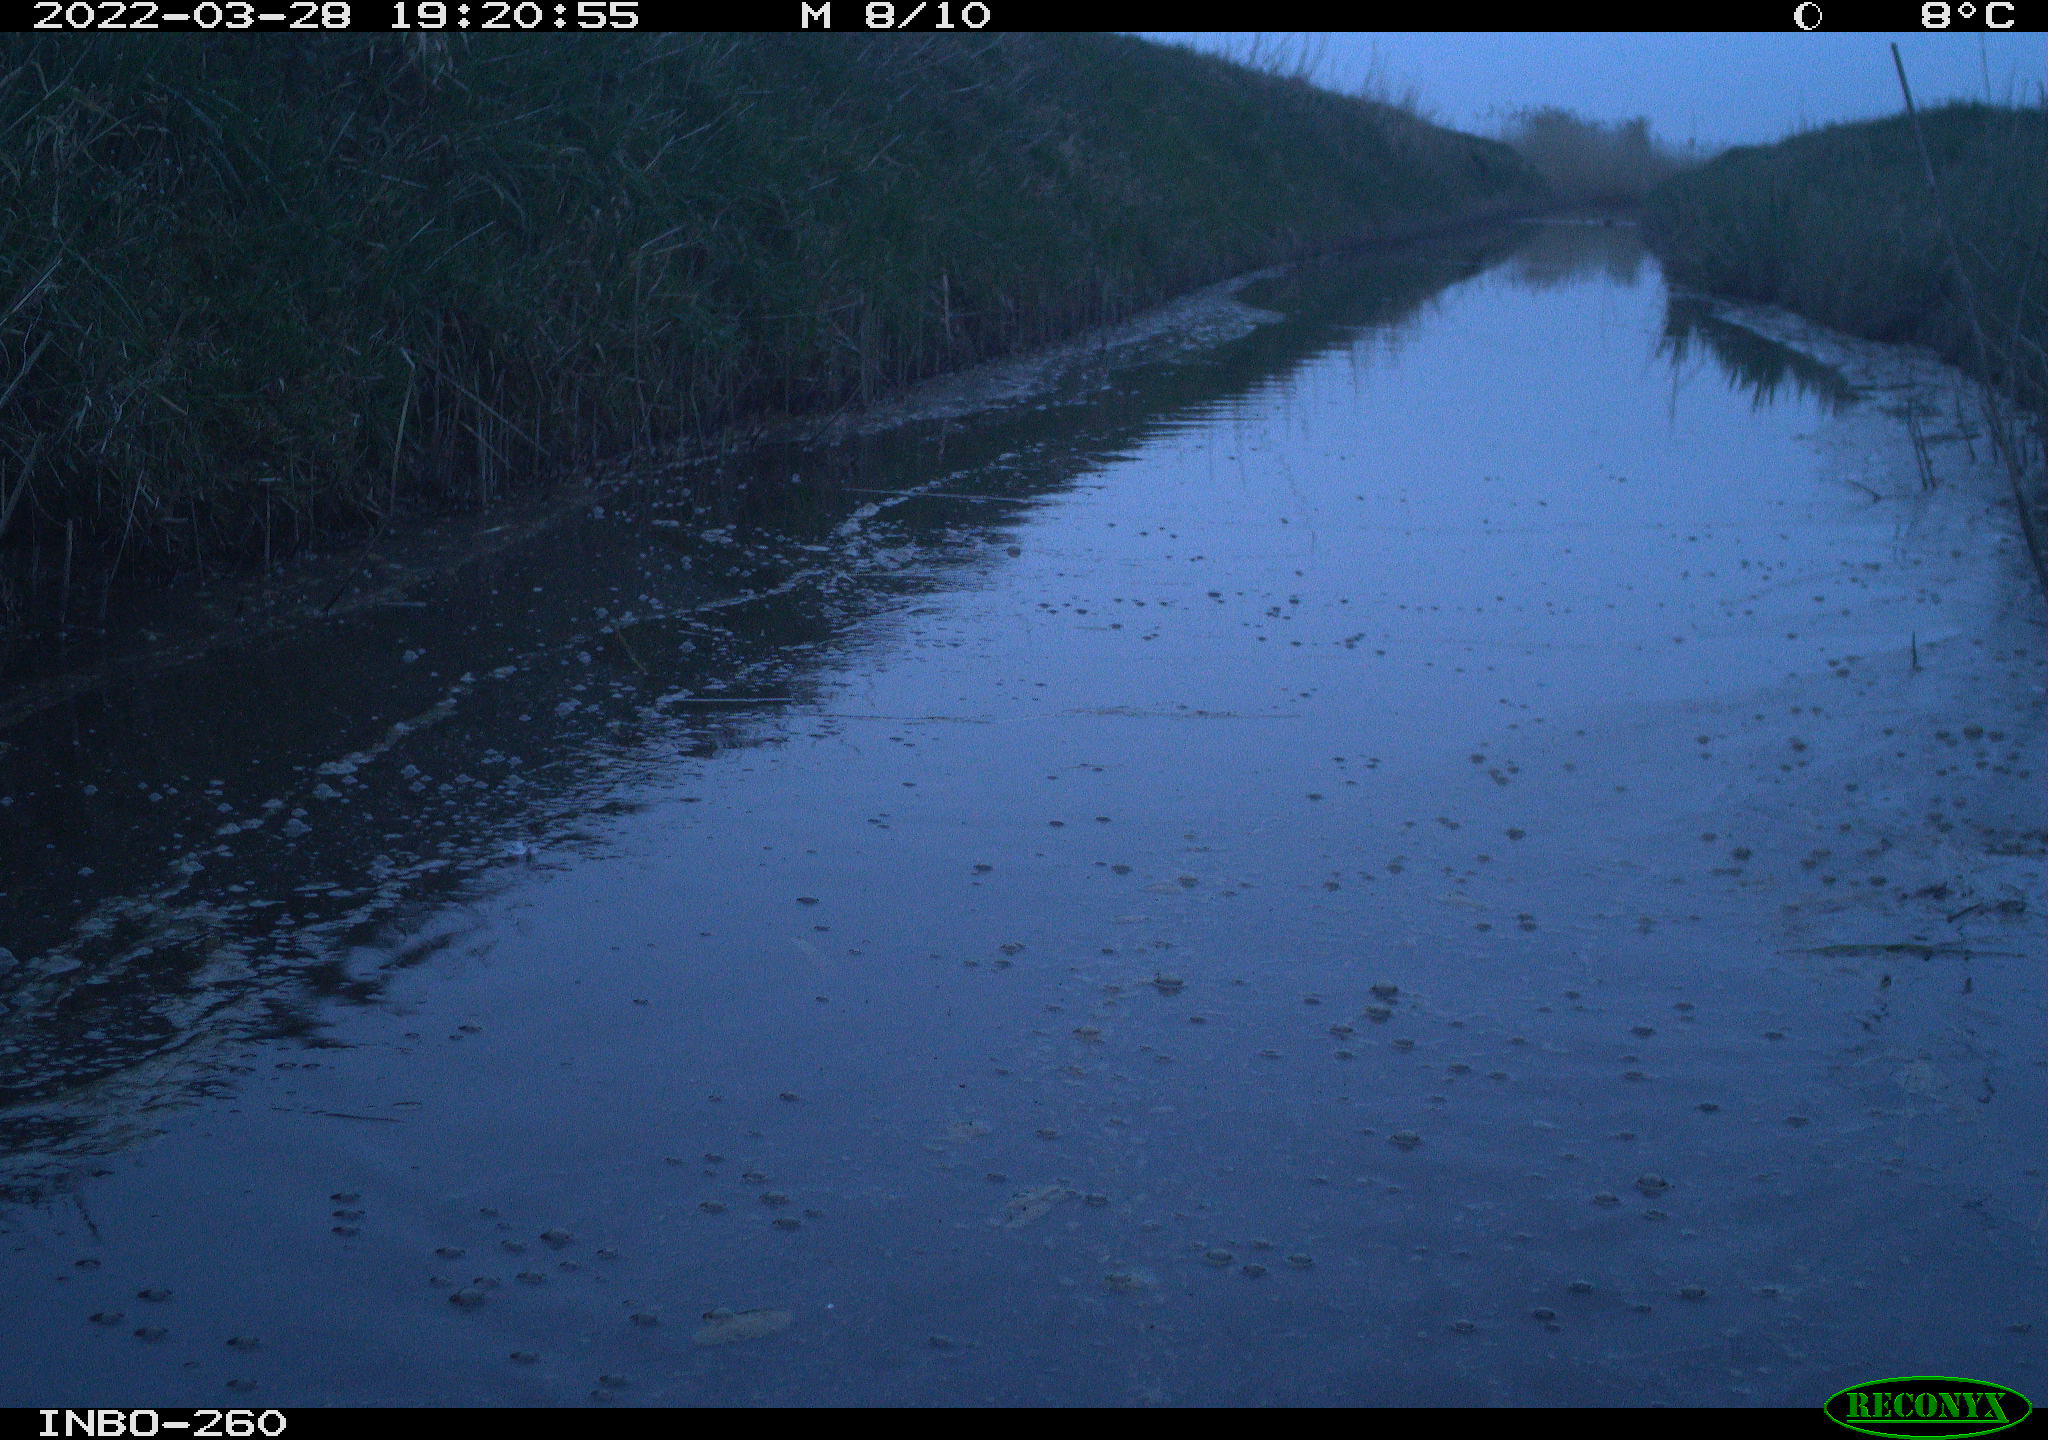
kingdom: Animalia
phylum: Chordata
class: Mammalia
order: Rodentia
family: Muridae
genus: Rattus
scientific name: Rattus norvegicus
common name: Brown rat
